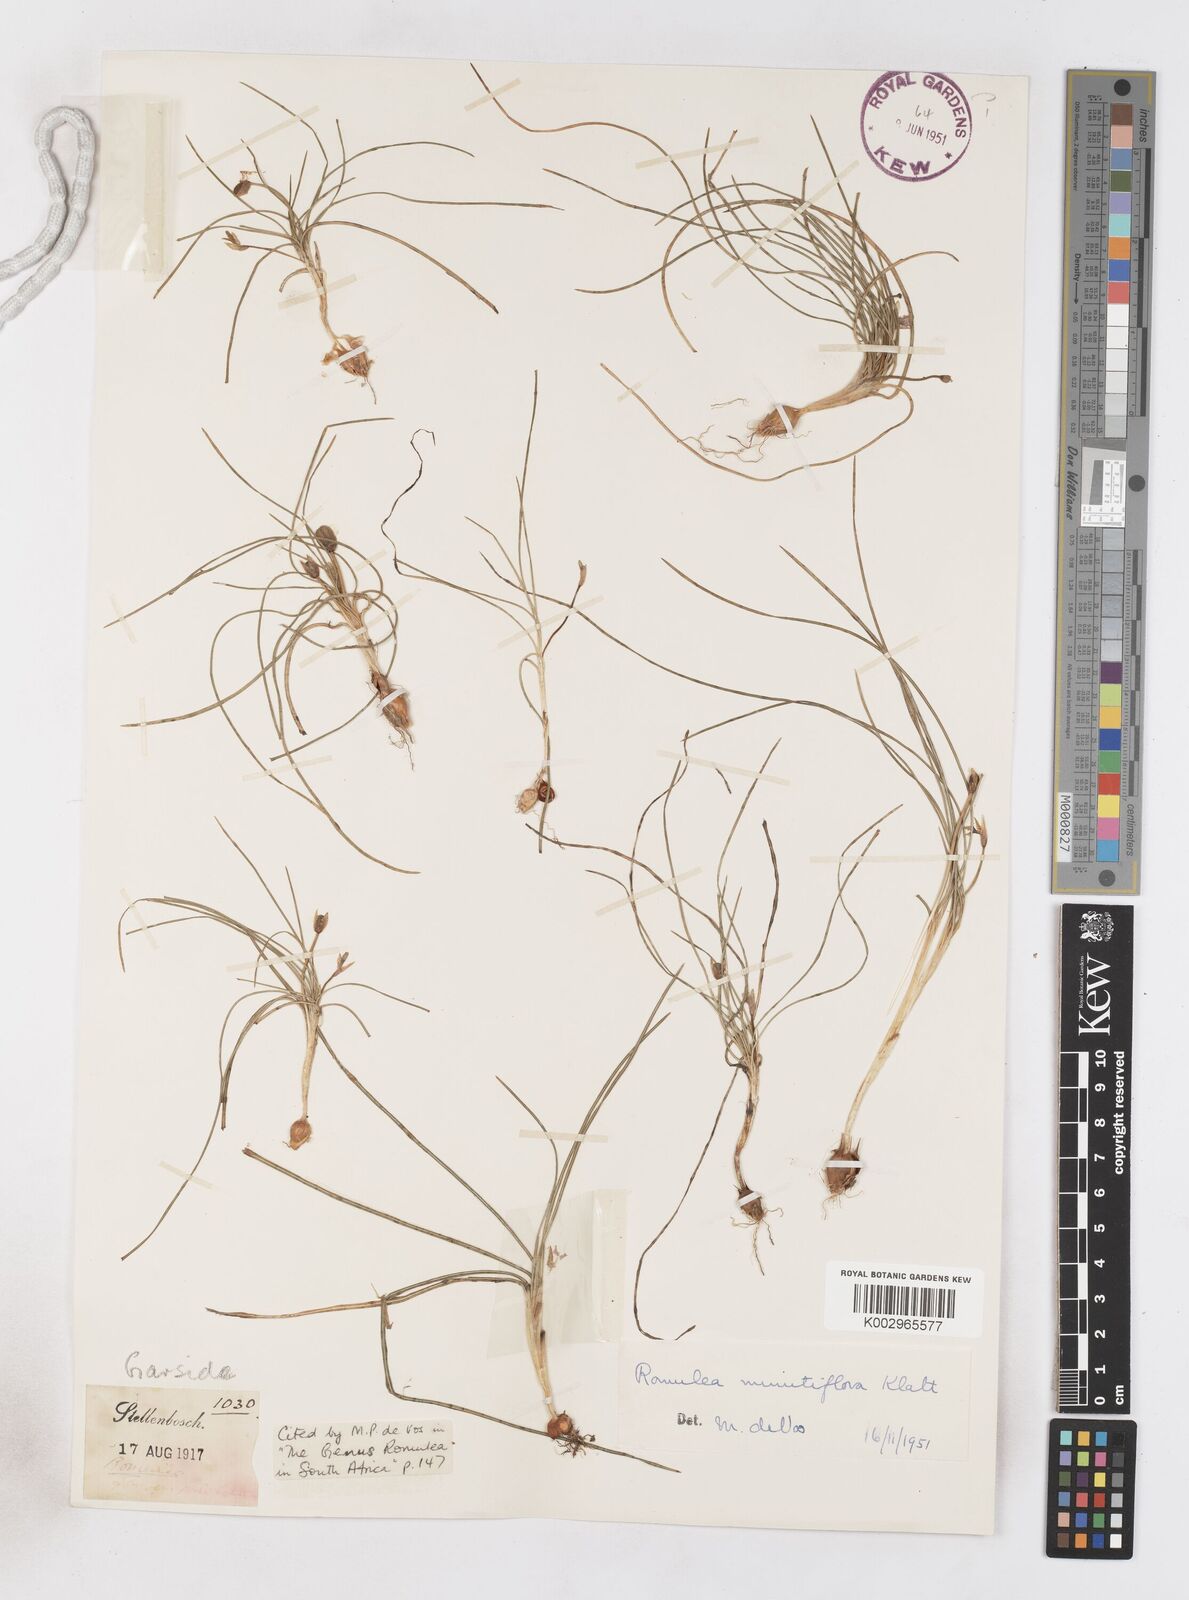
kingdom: Plantae
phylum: Tracheophyta
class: Liliopsida
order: Asparagales
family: Iridaceae
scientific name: Iridaceae
